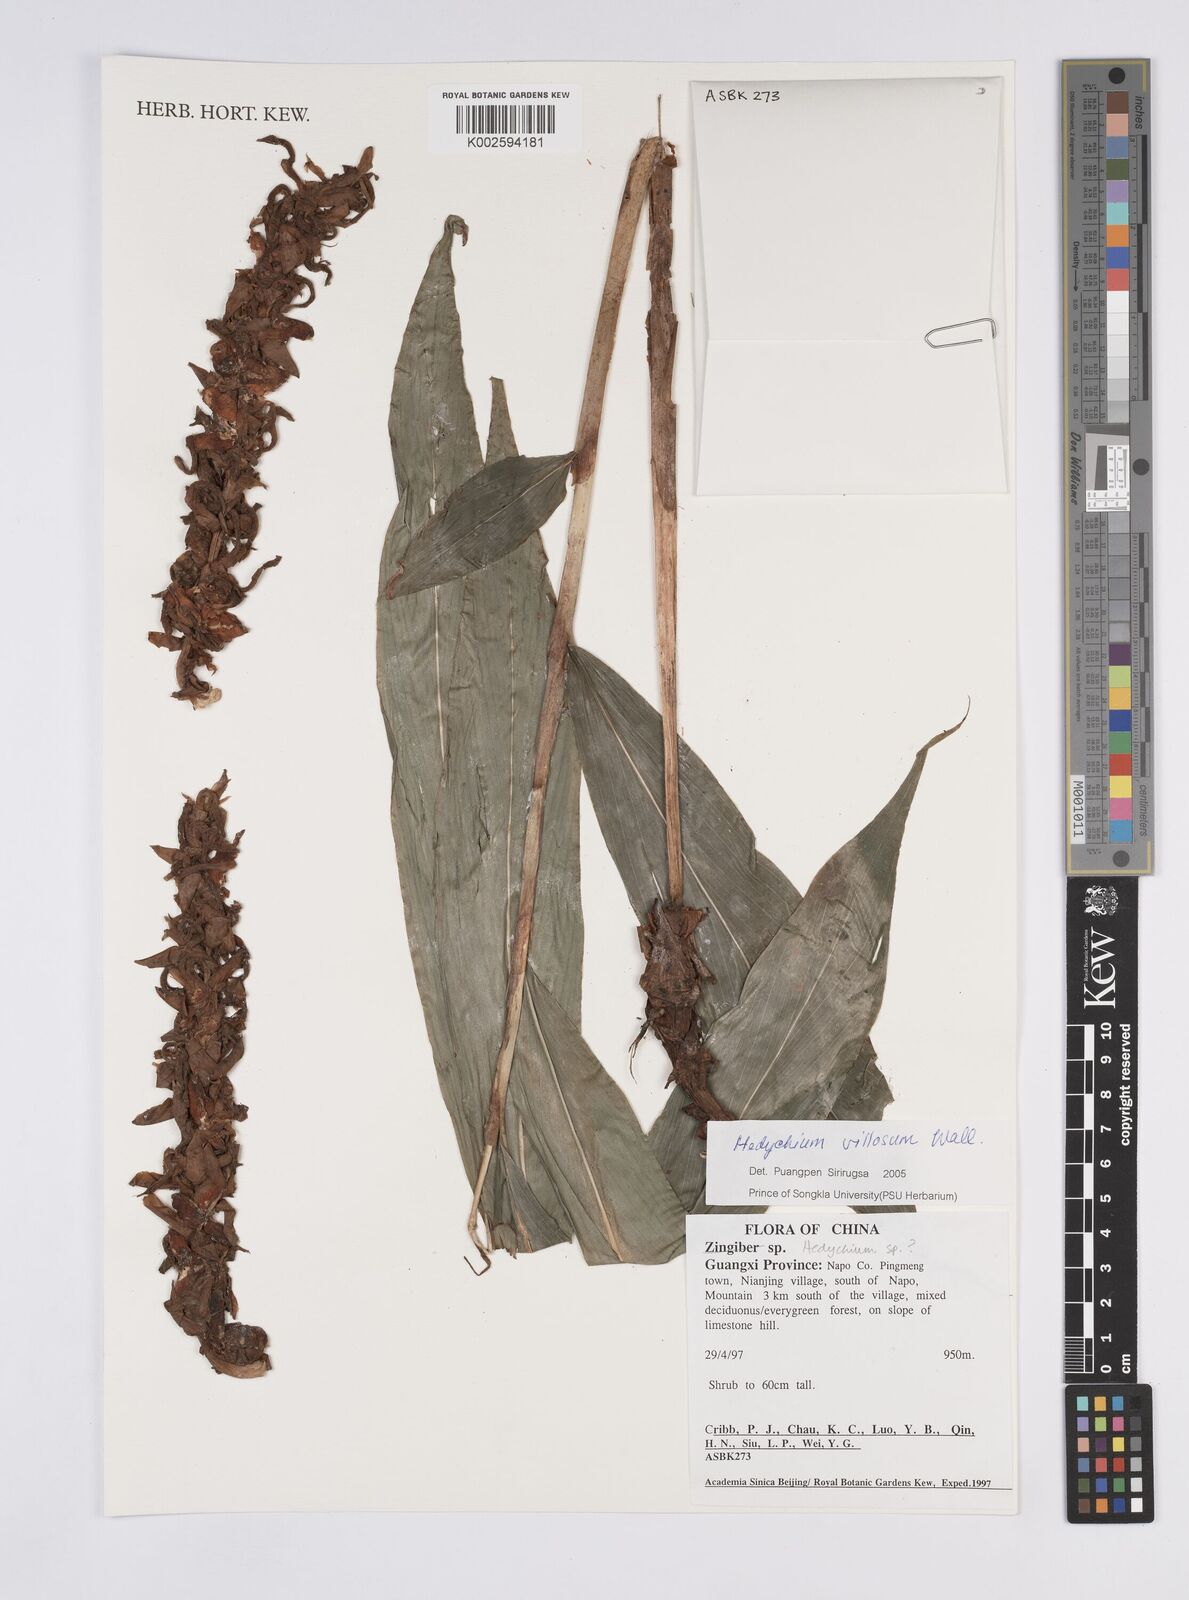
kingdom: Plantae
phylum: Tracheophyta
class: Liliopsida
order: Zingiberales
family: Zingiberaceae
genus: Hedychium
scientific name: Hedychium villosum
